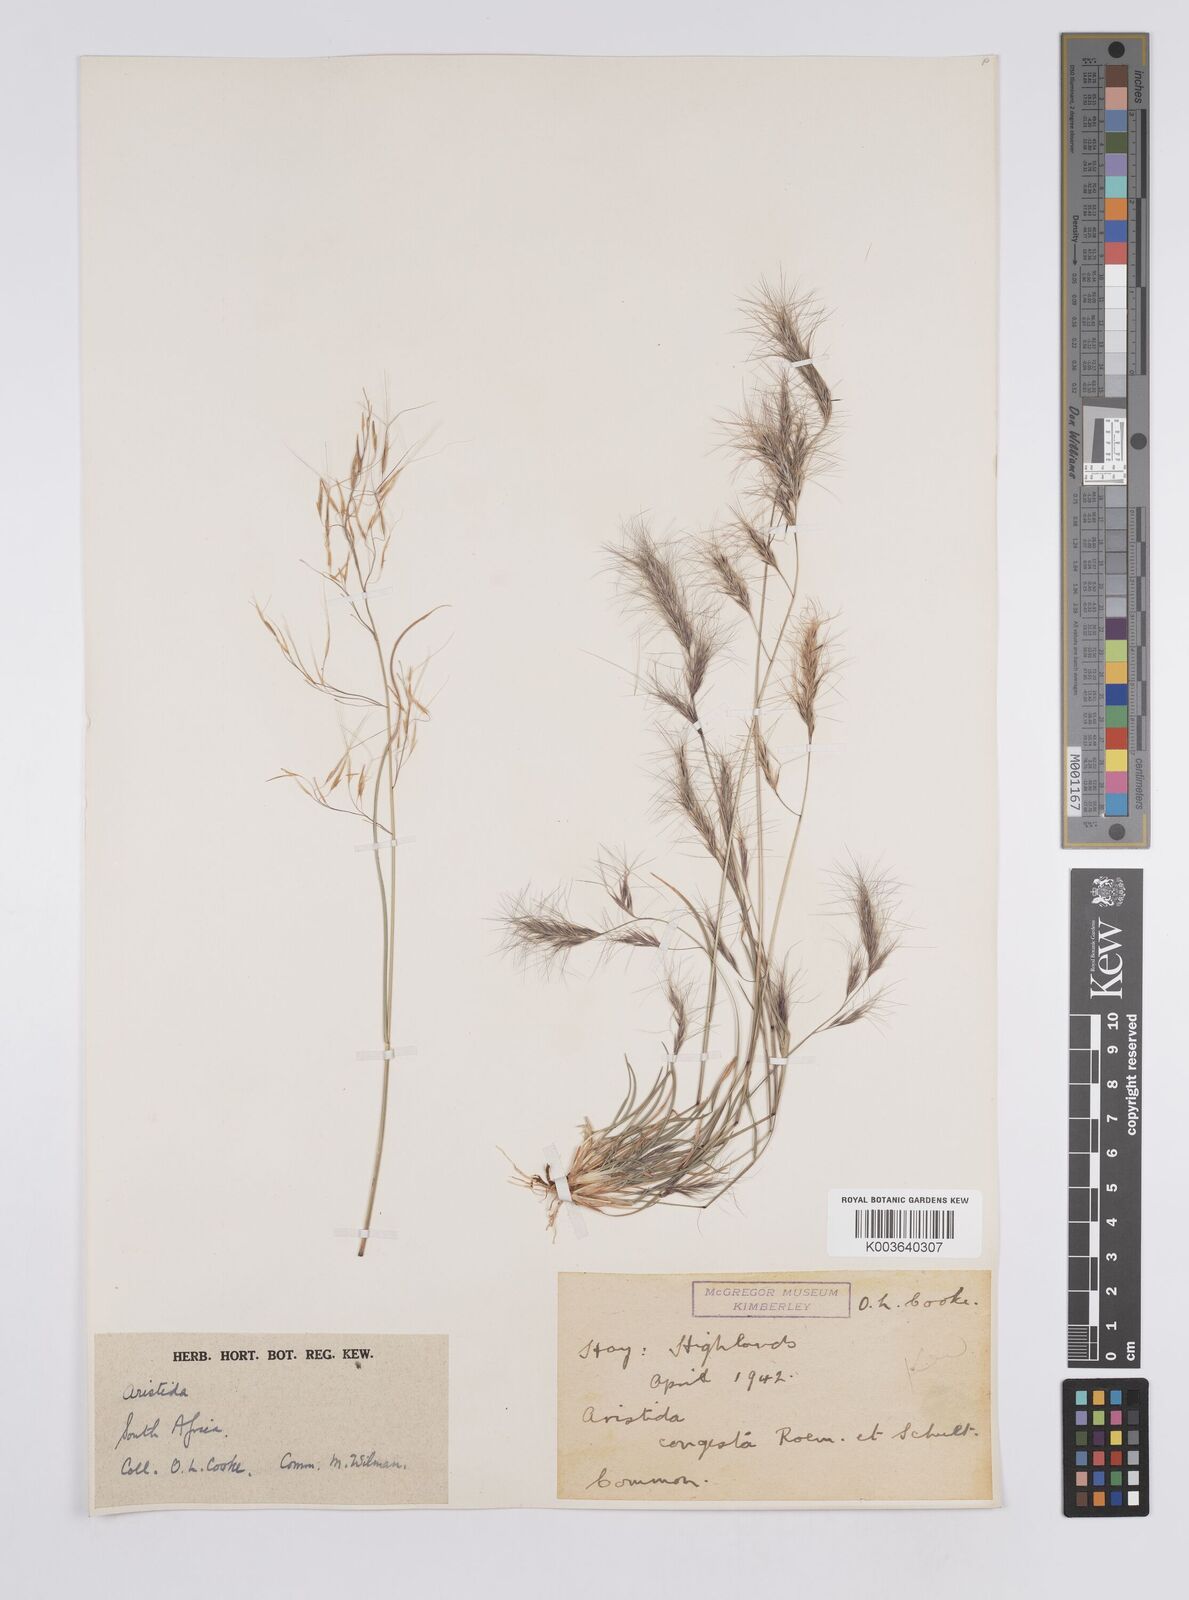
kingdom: Plantae
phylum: Tracheophyta
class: Liliopsida
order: Poales
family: Poaceae
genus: Aristida
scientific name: Aristida congesta
